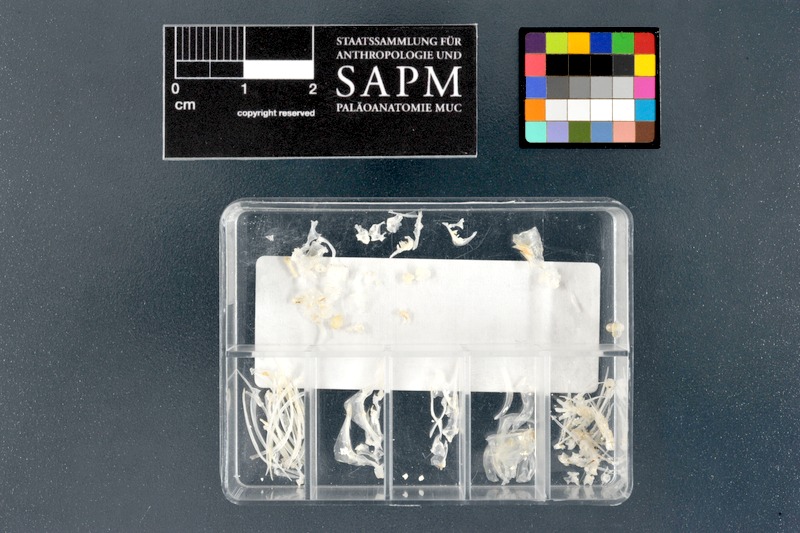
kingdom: Animalia
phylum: Chordata
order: Cypriniformes
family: Cyprinidae
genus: Puntigrus
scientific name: Puntigrus tetrazona
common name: Tiger barb
